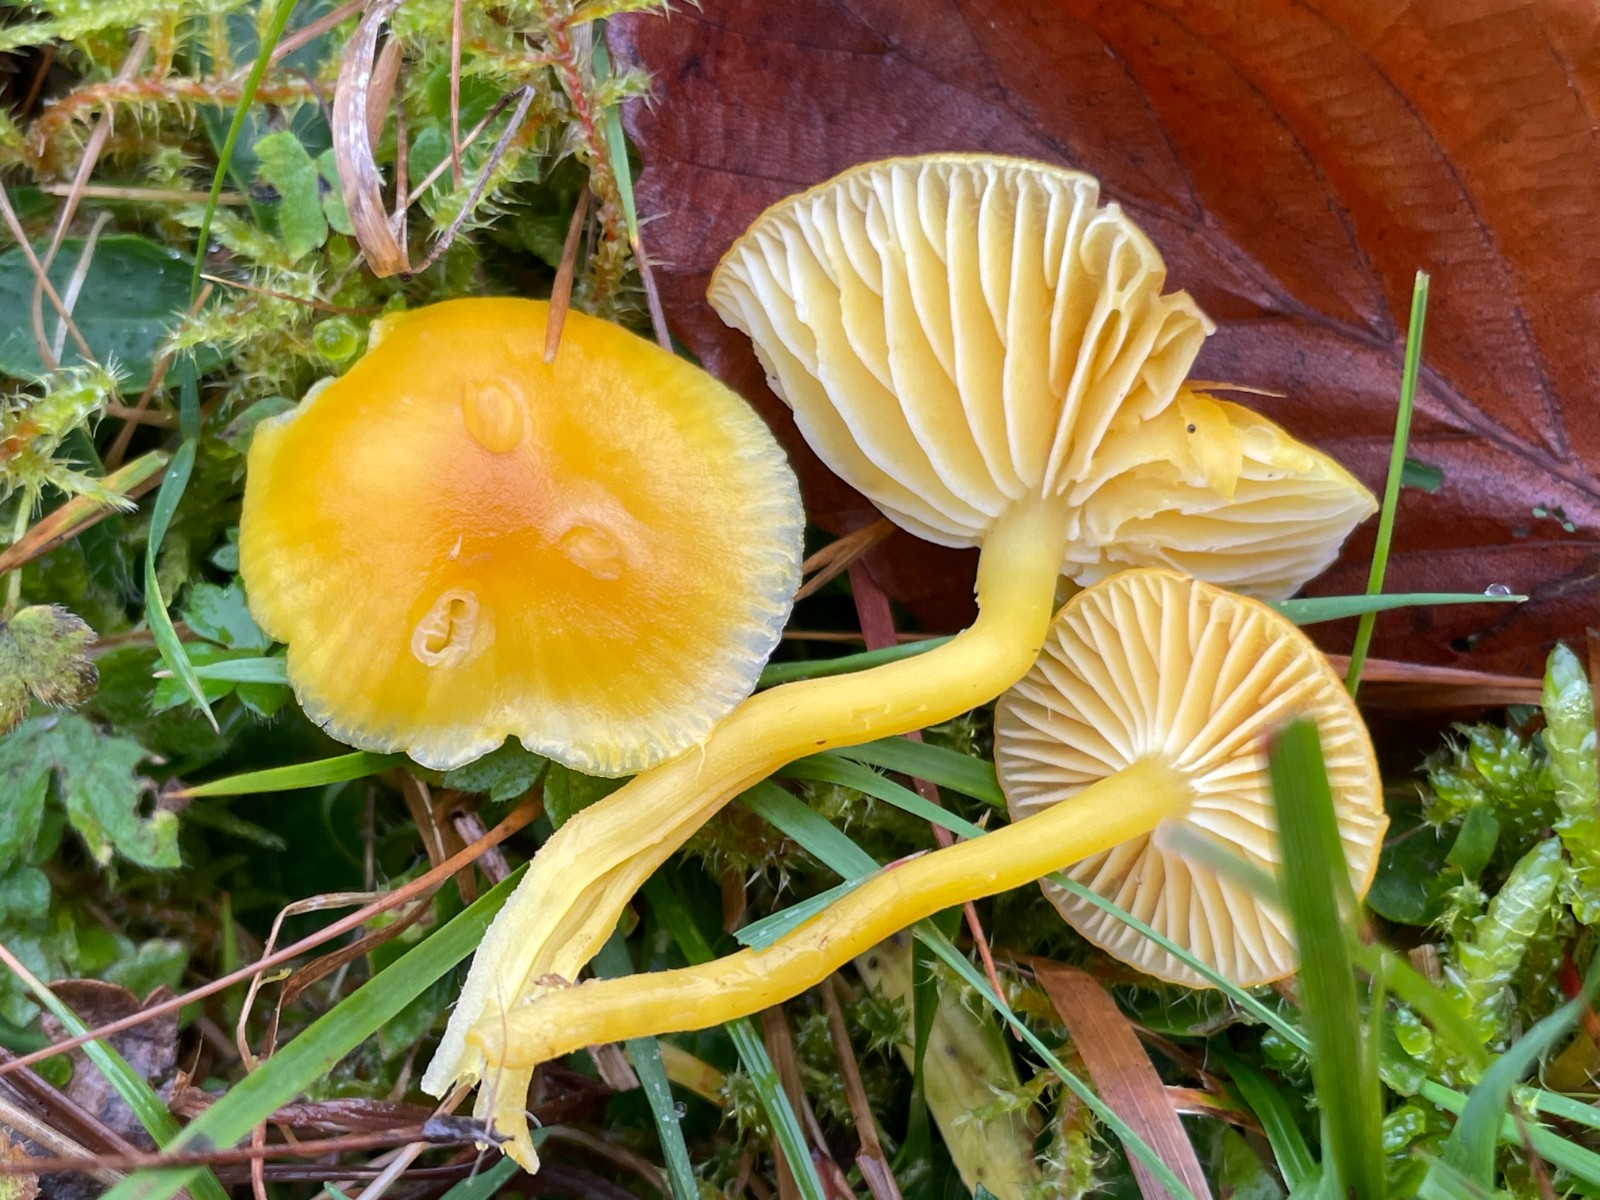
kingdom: Fungi
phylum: Basidiomycota
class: Agaricomycetes
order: Agaricales
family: Hygrophoraceae
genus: Hygrocybe
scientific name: Hygrocybe ceracea
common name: voksgul vokshat
